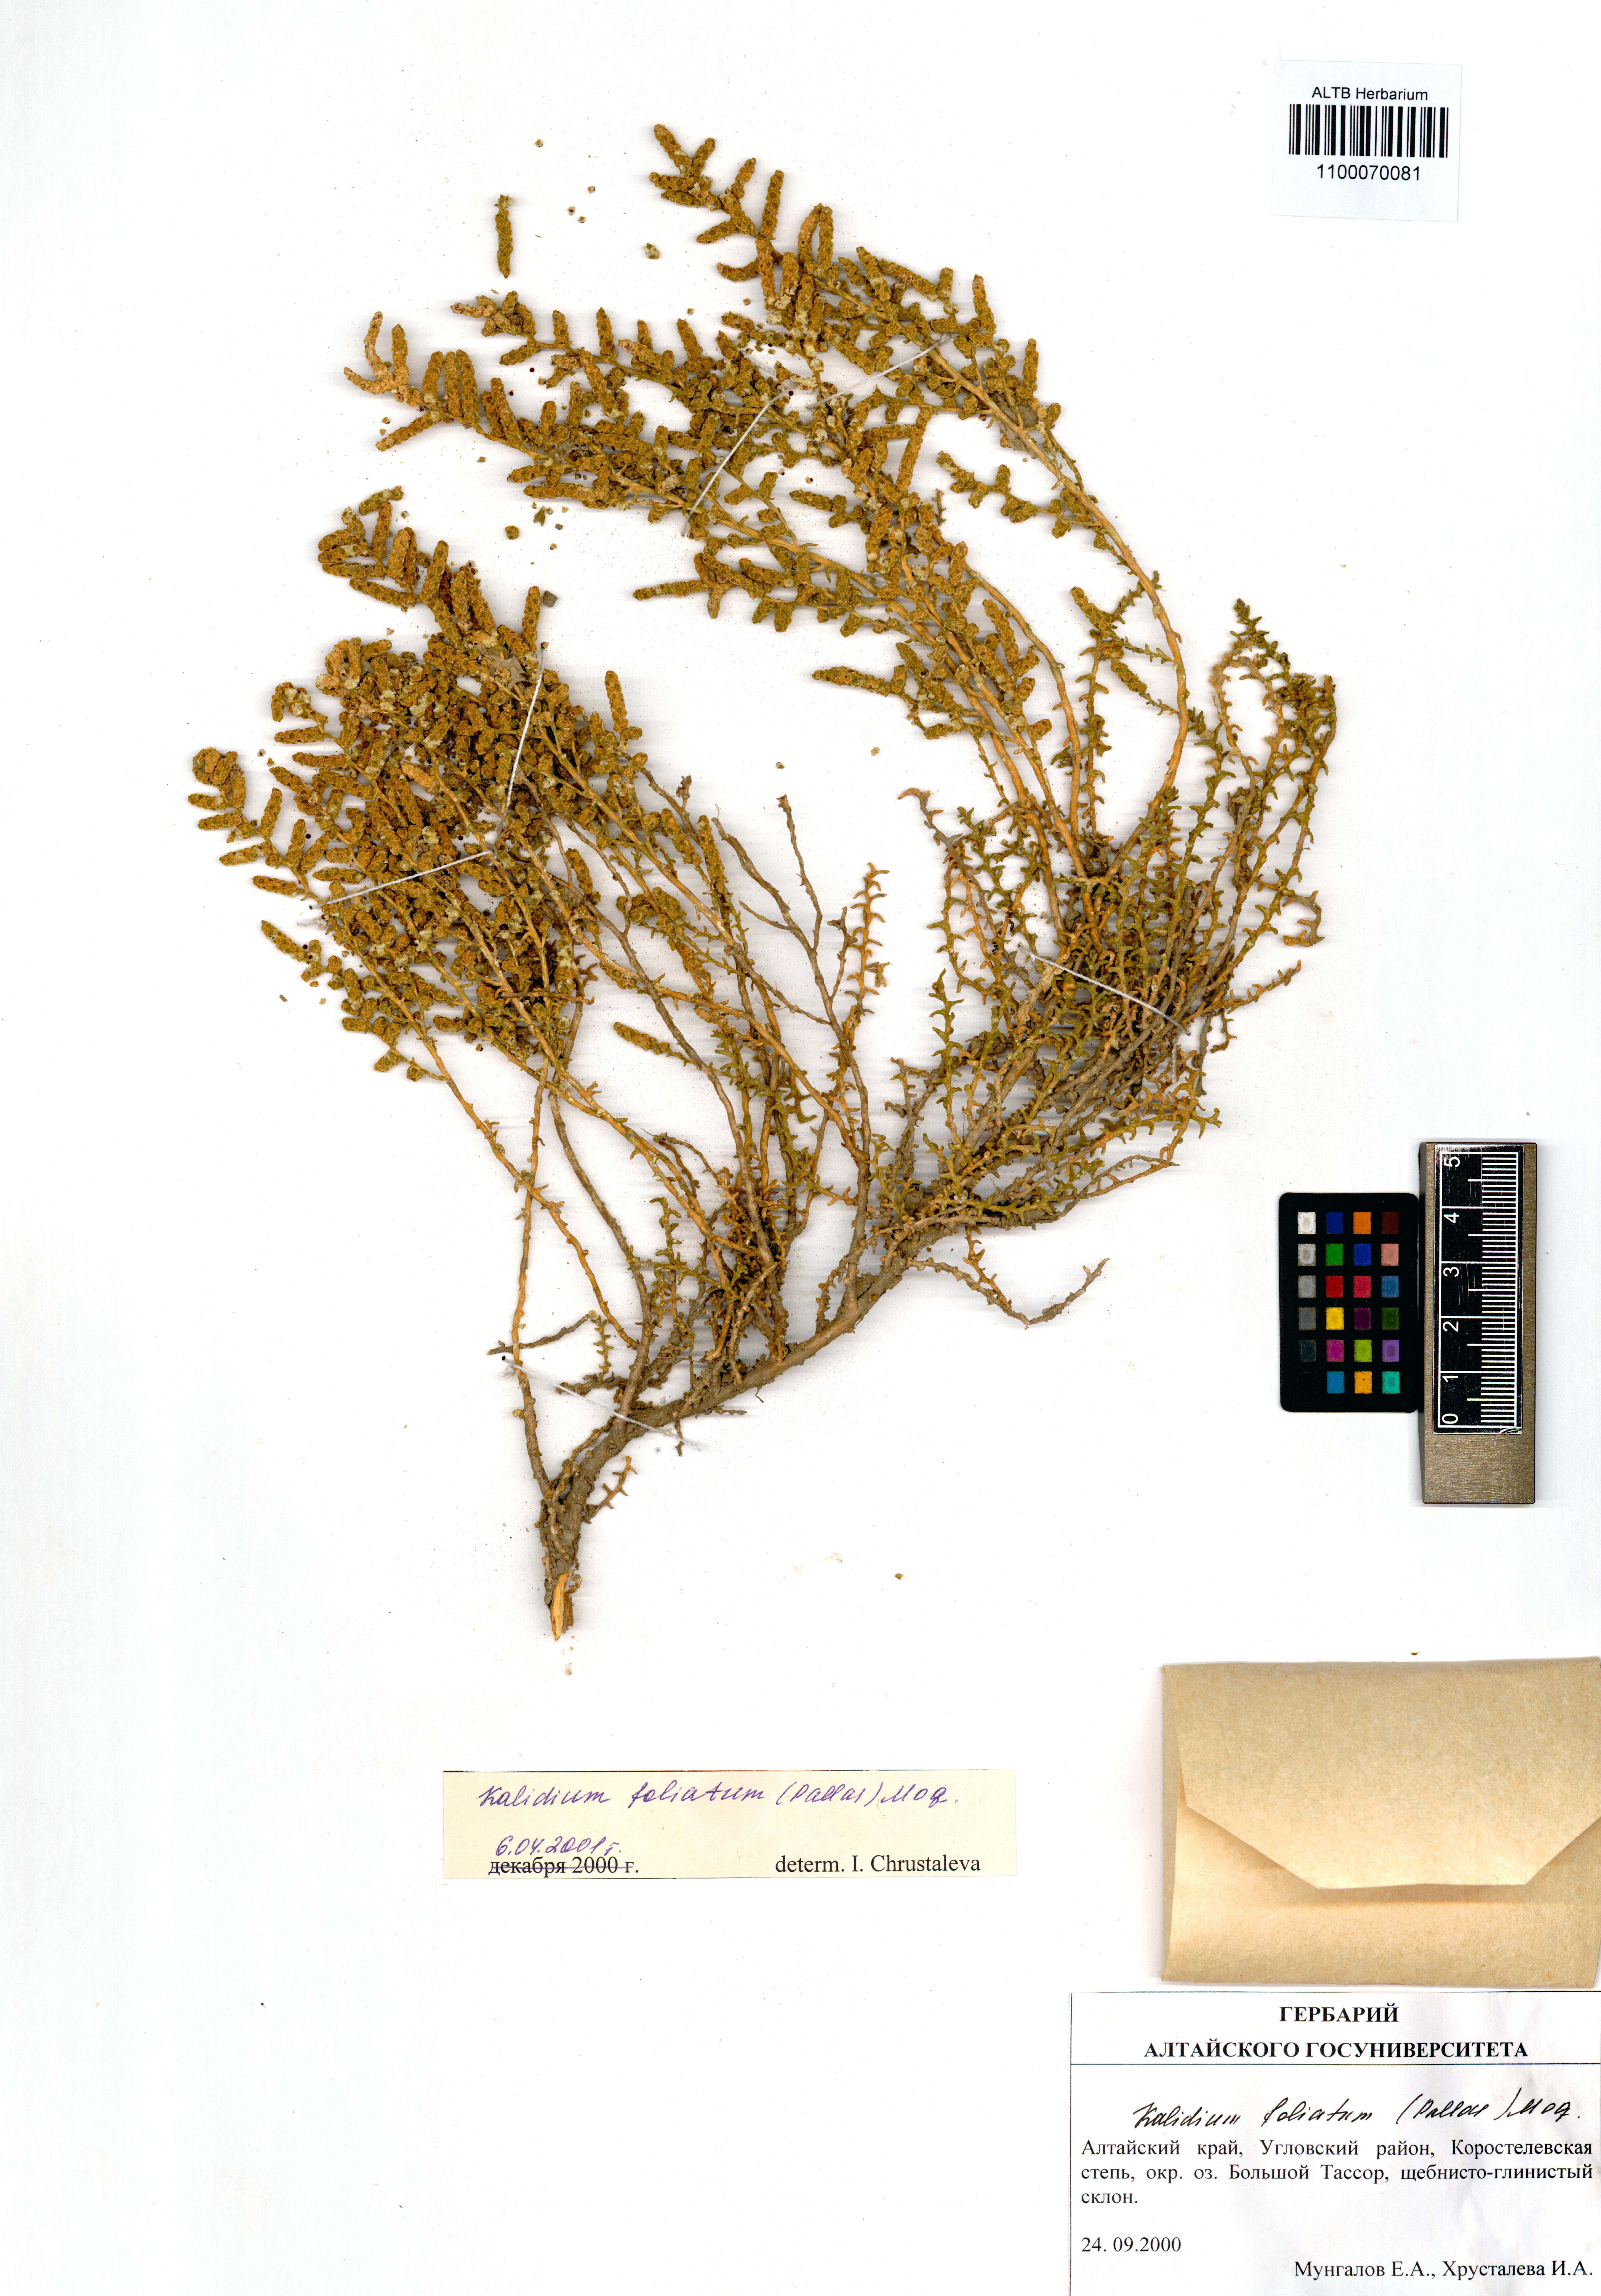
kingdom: Plantae
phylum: Tracheophyta
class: Magnoliopsida
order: Caryophyllales
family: Amaranthaceae
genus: Kalidium
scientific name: Kalidium foliatum
